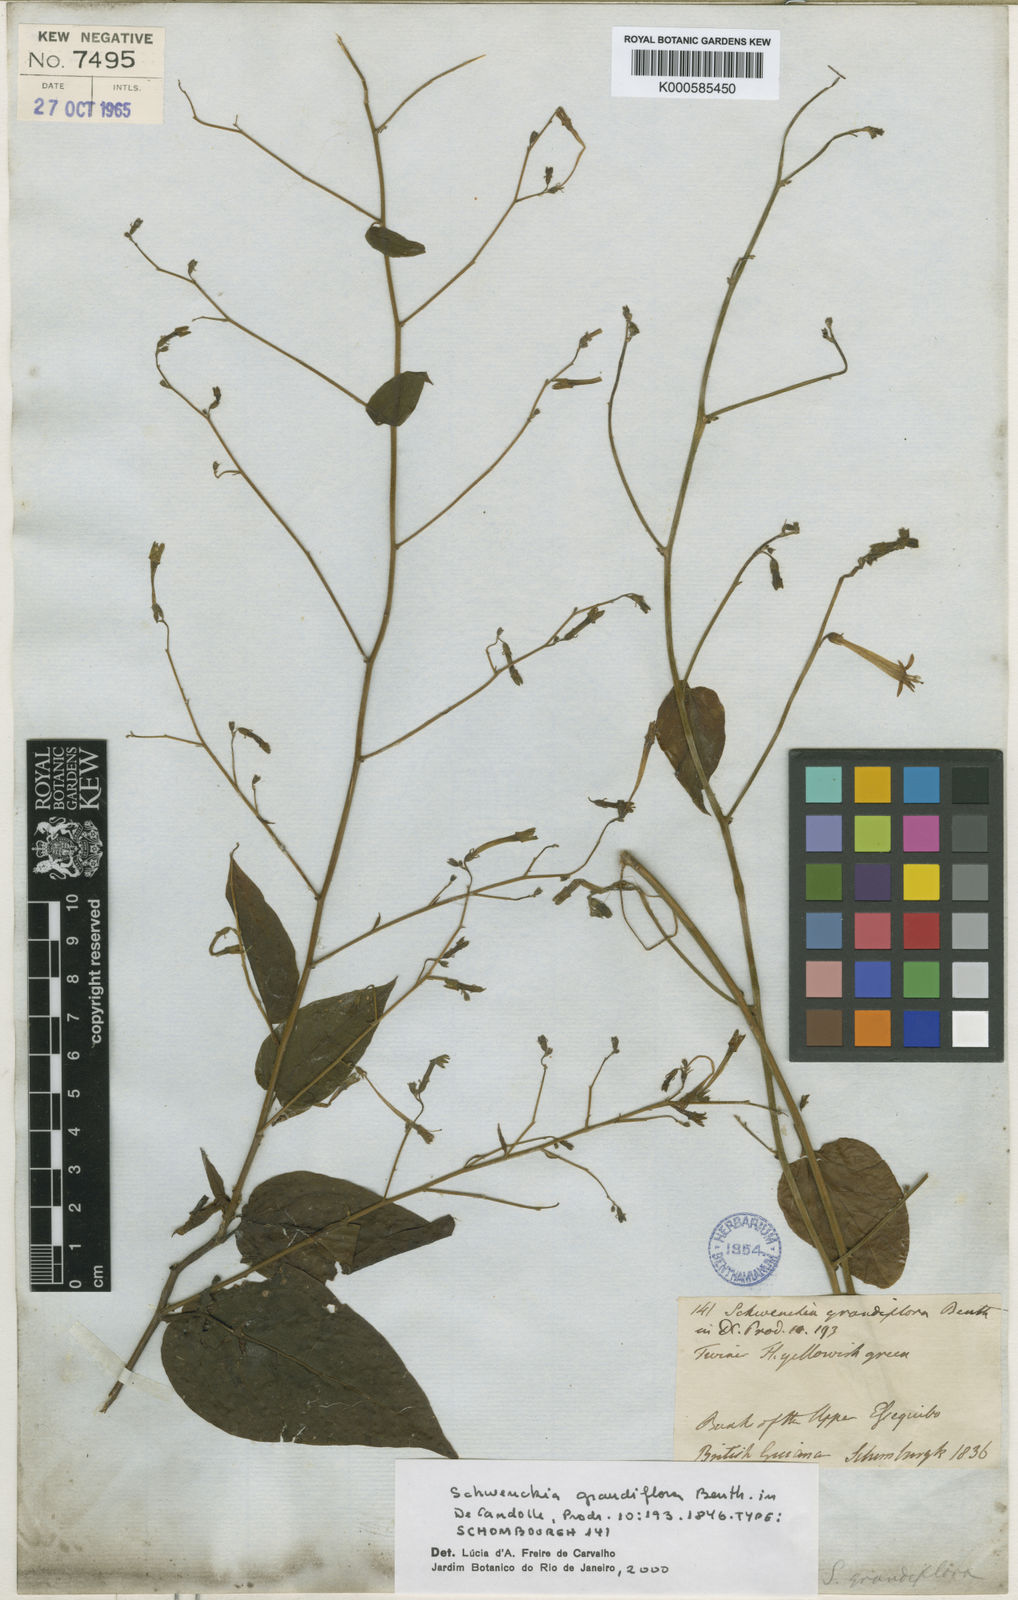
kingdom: Plantae
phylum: Tracheophyta
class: Magnoliopsida
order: Solanales
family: Solanaceae
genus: Schwenckia
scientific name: Schwenckia grandiflora
